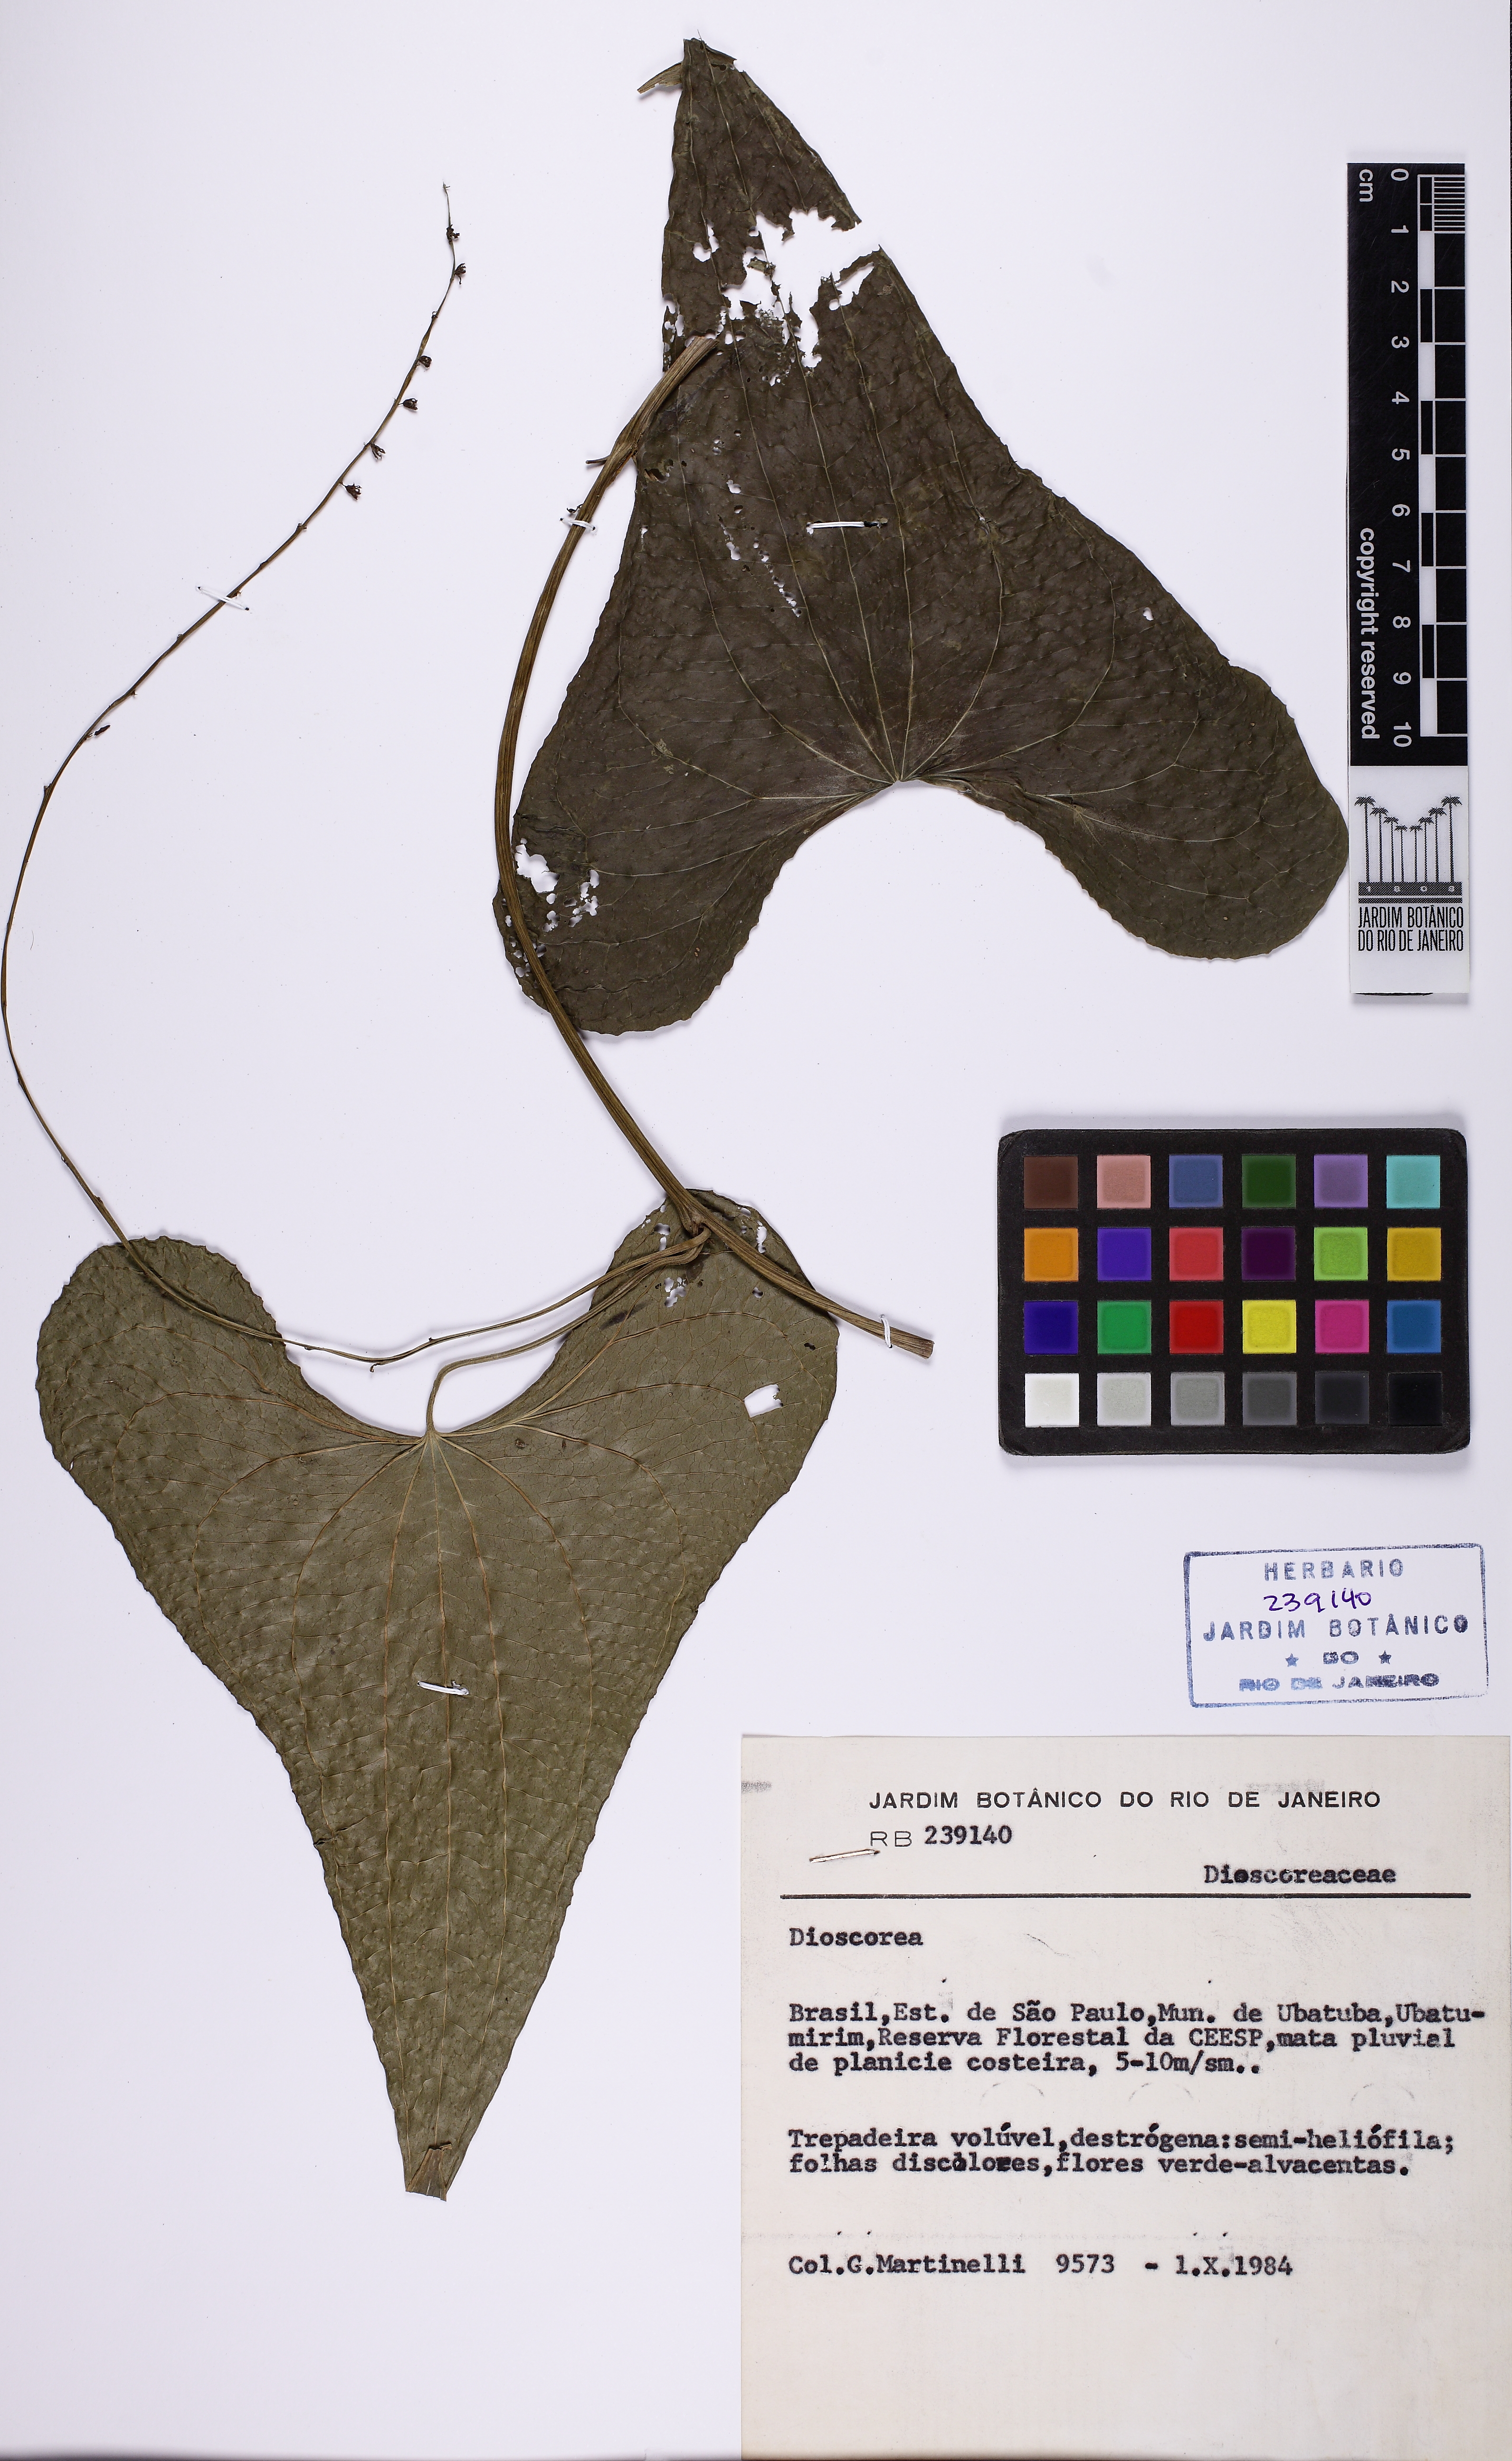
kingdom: Plantae
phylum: Tracheophyta
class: Liliopsida
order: Dioscoreales
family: Dioscoreaceae
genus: Dioscorea
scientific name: Dioscorea monadelpha
